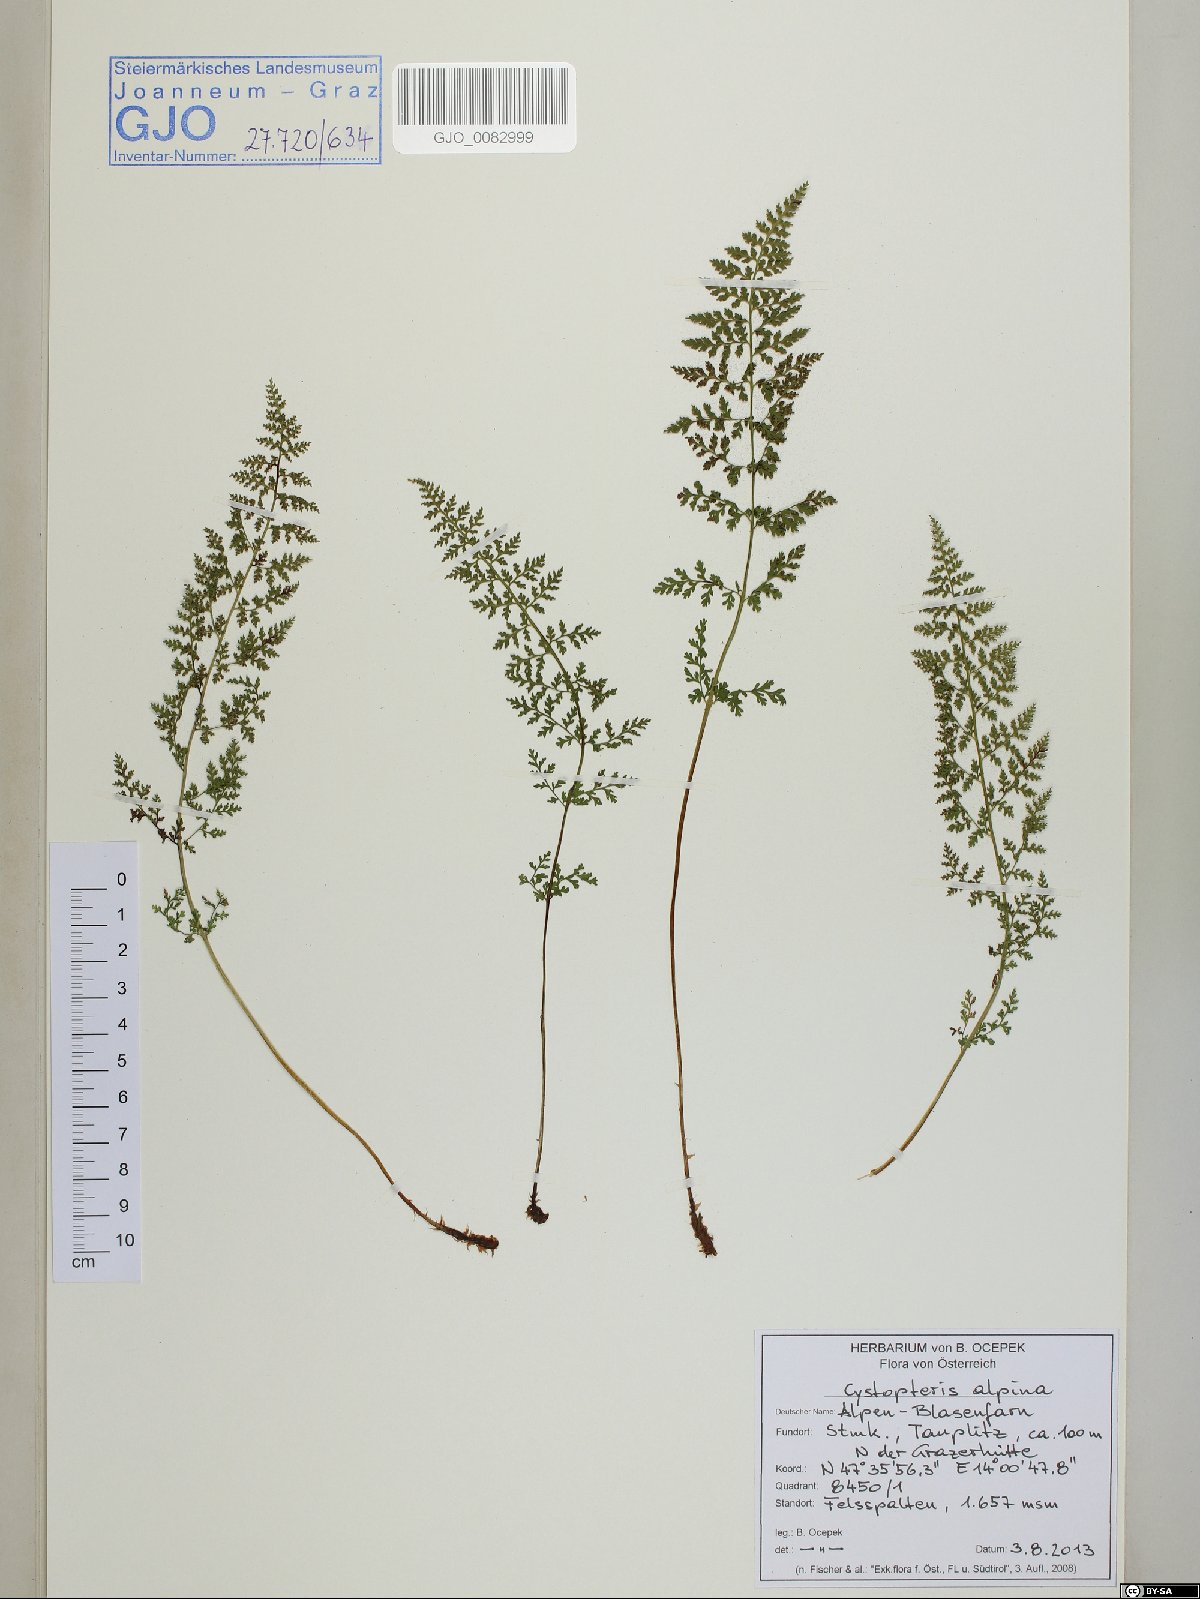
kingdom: Plantae
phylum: Tracheophyta
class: Polypodiopsida
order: Polypodiales
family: Cystopteridaceae
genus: Cystopteris
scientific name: Cystopteris alpina
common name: Alpine bladder-fern
